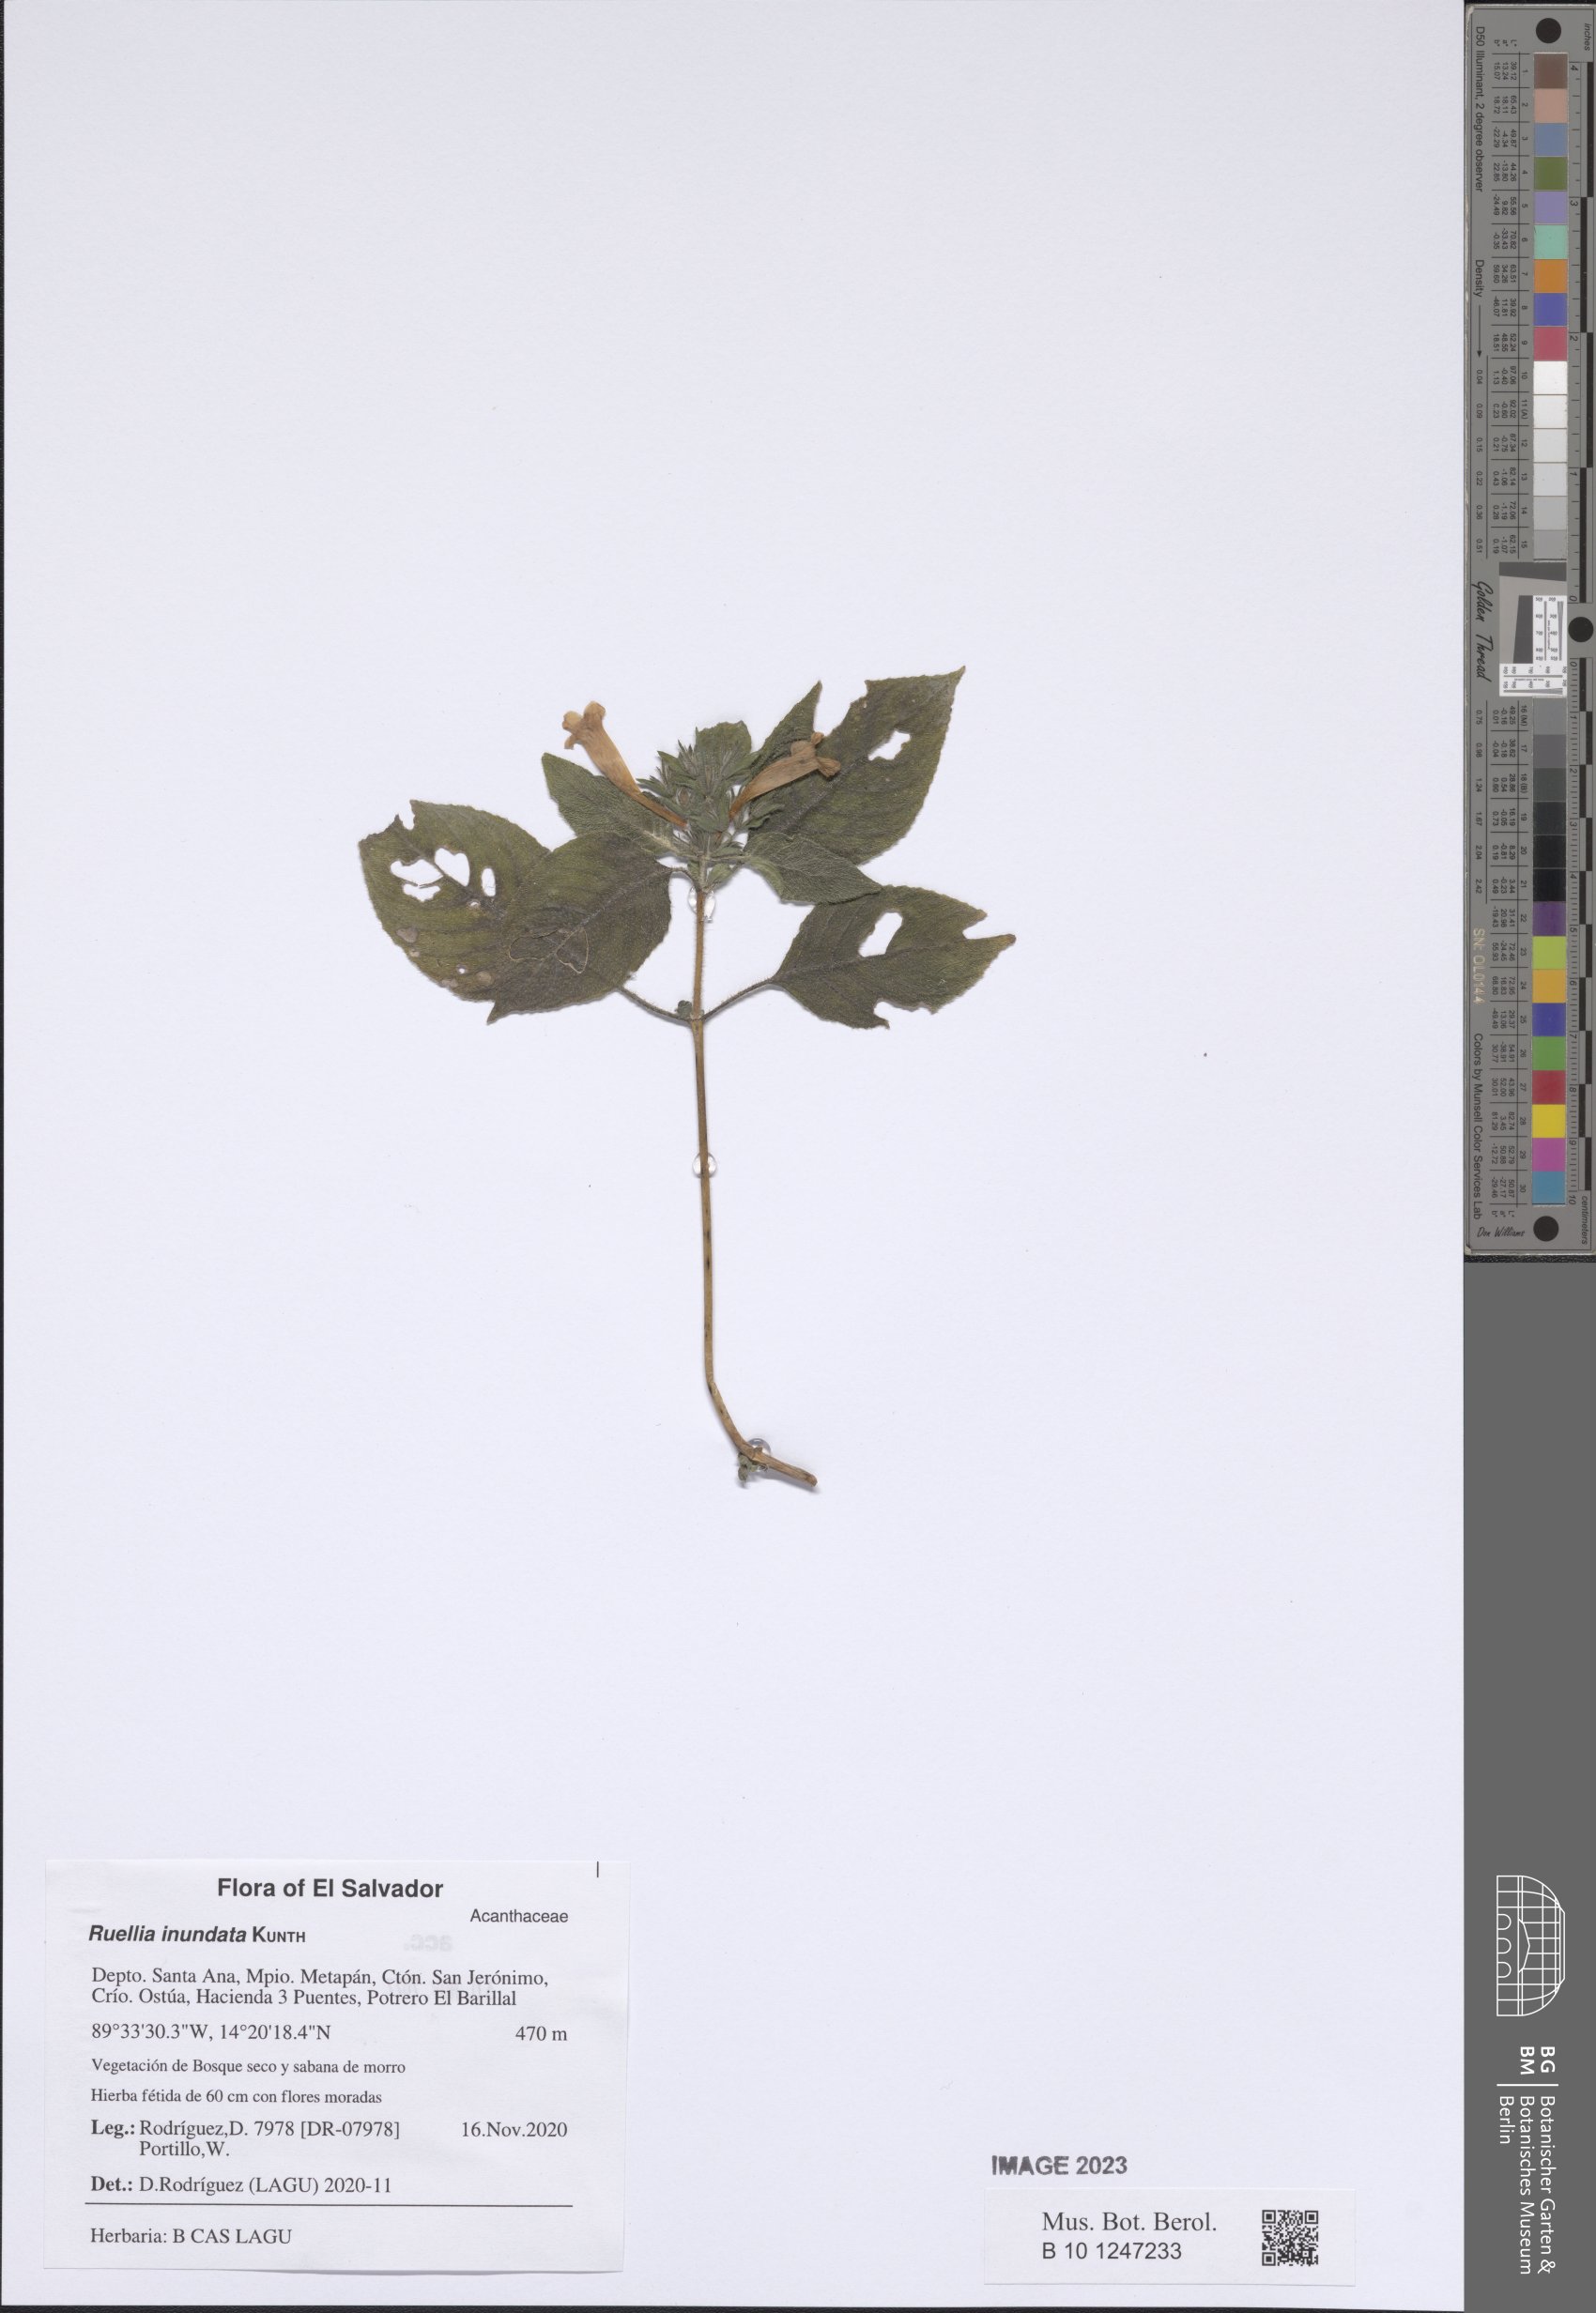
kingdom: Plantae
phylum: Tracheophyta
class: Magnoliopsida
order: Lamiales
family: Acanthaceae
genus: Ruellia
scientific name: Ruellia inundata
